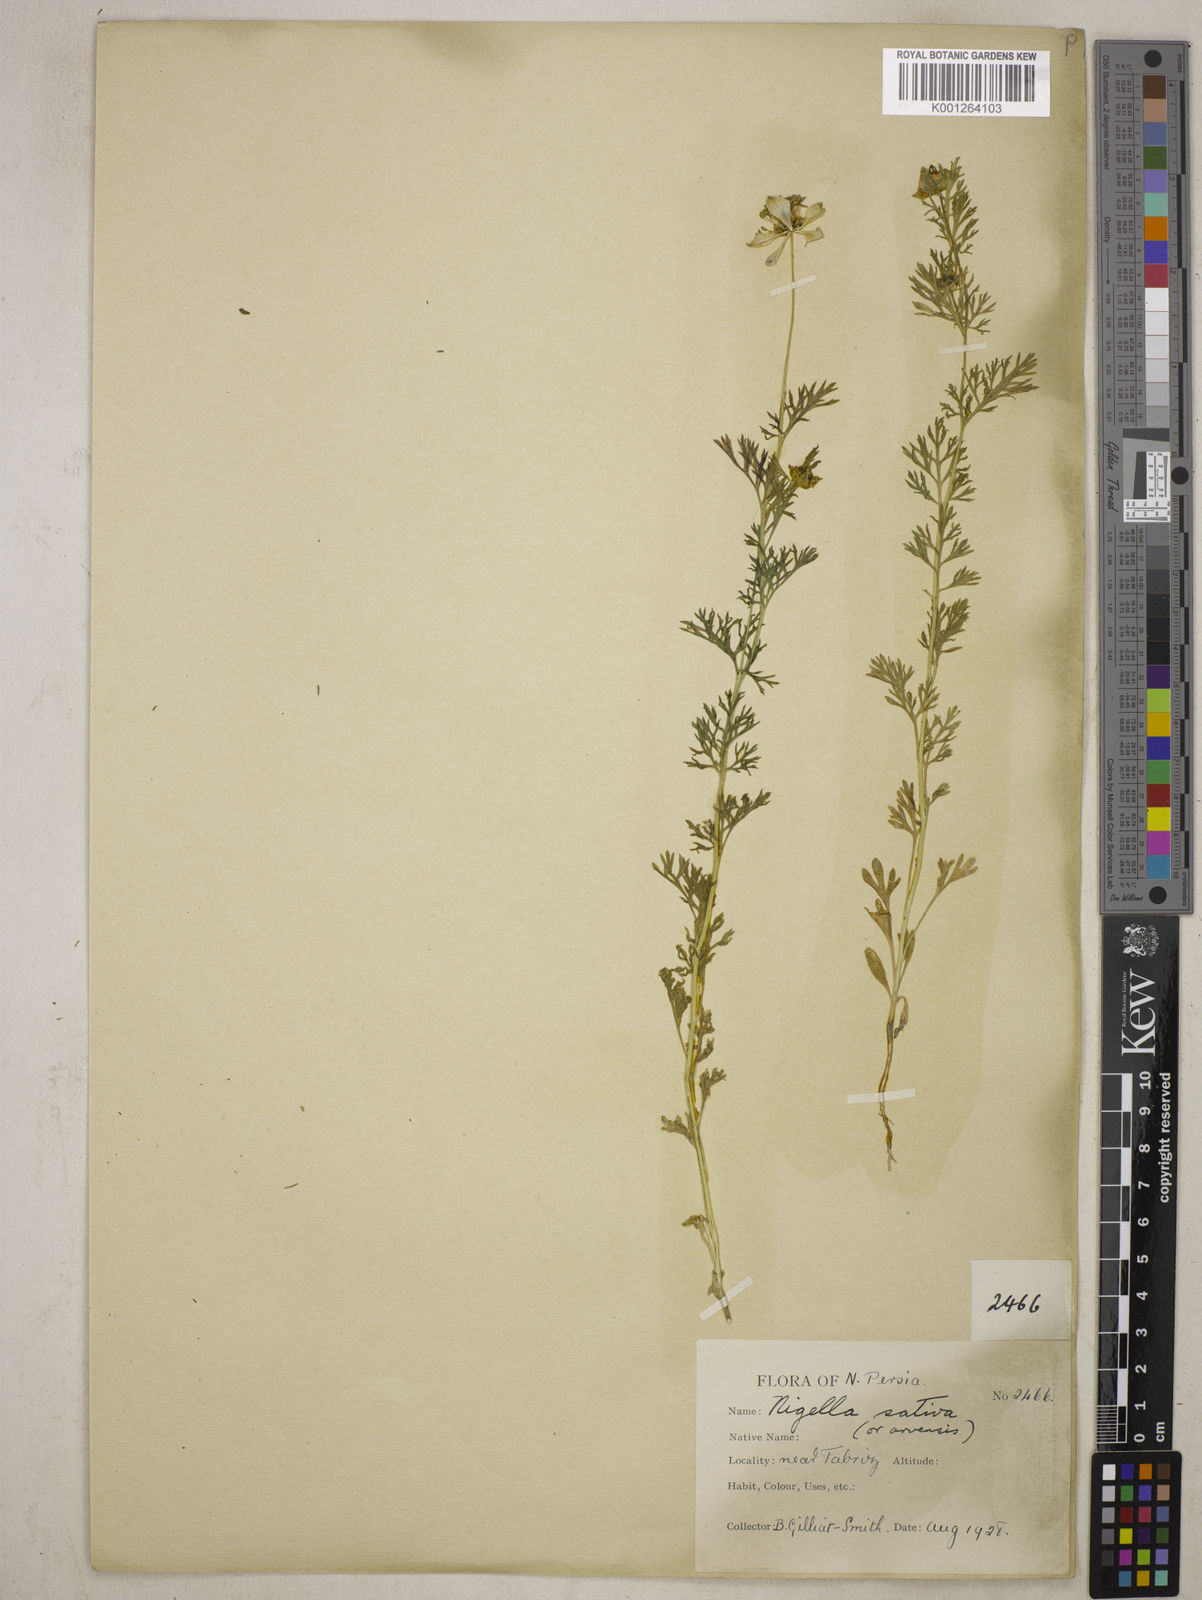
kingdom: Plantae
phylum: Tracheophyta
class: Magnoliopsida
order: Ranunculales
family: Ranunculaceae
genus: Nigella
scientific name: Nigella sativa
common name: Black-cumin
